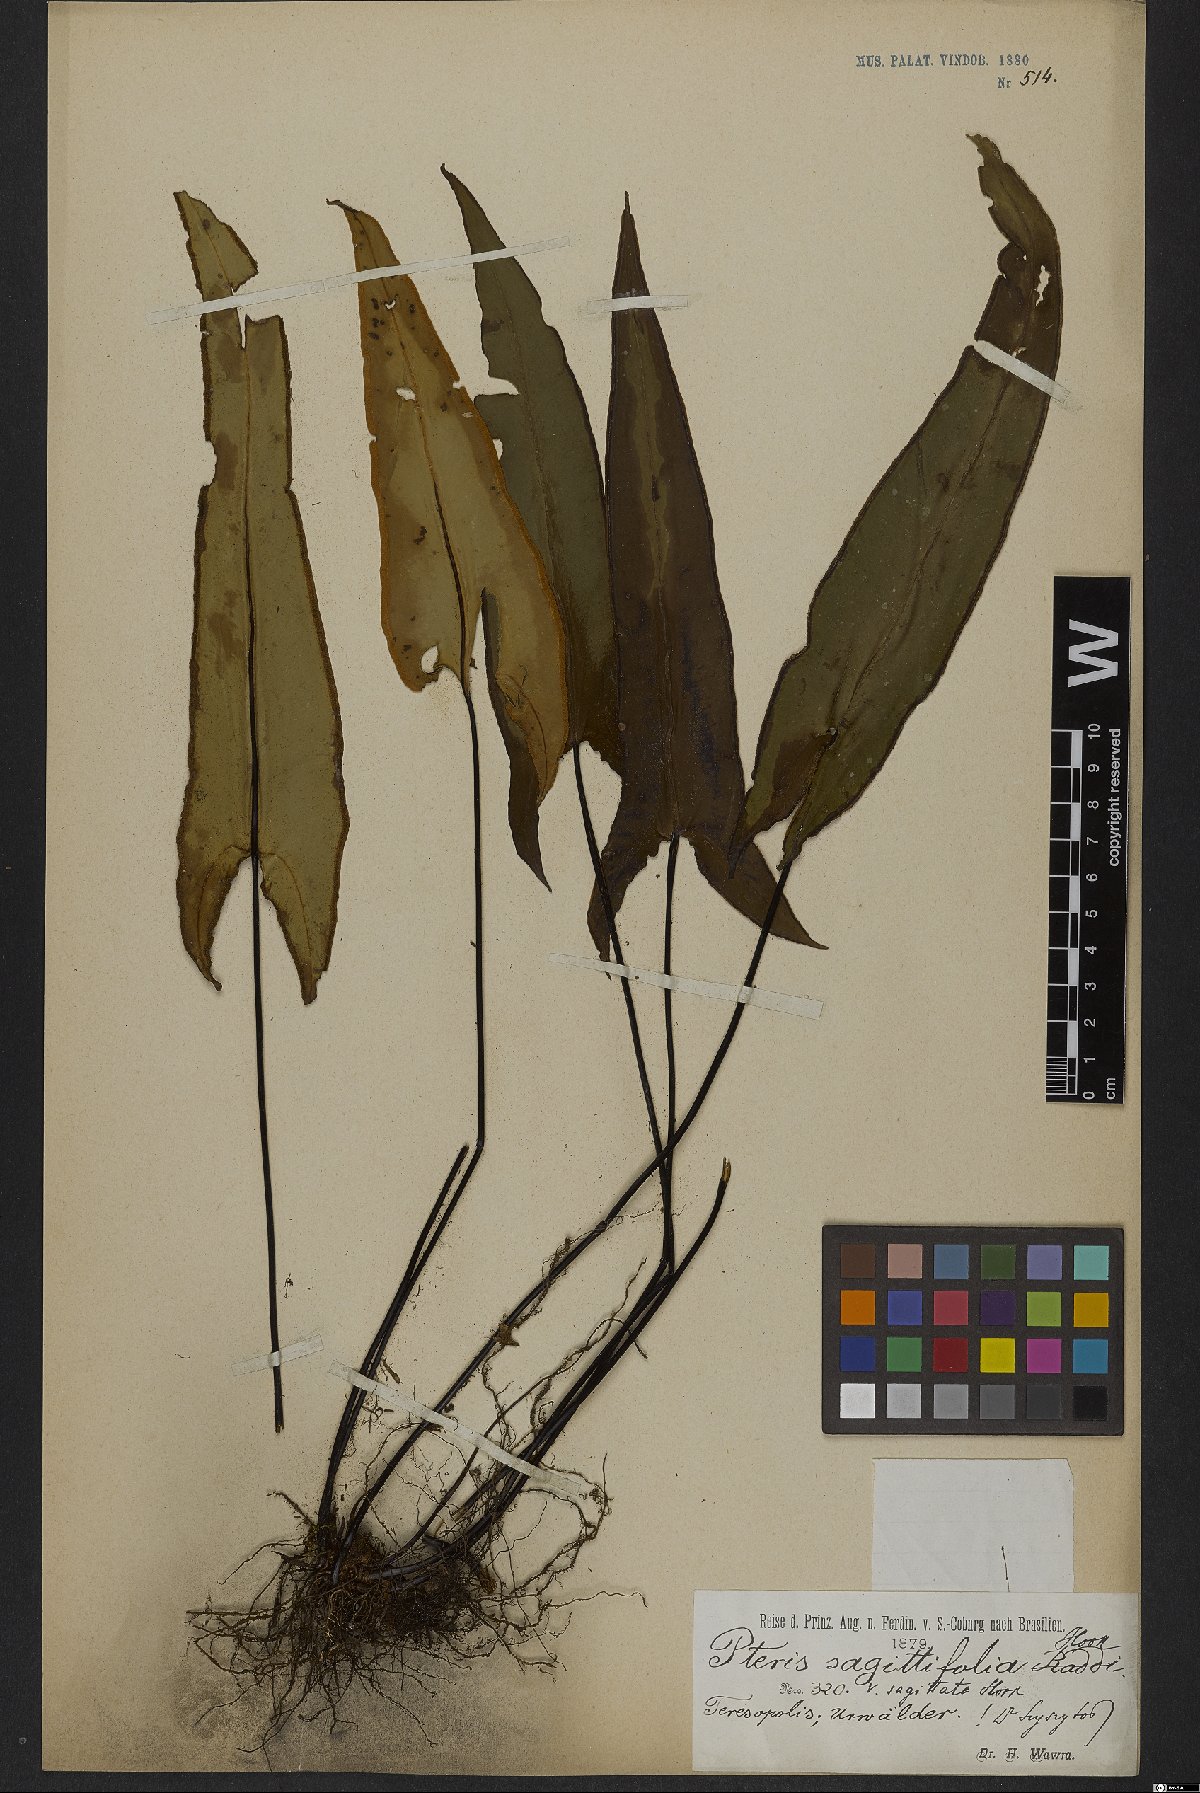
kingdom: Plantae
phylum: Tracheophyta
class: Polypodiopsida
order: Polypodiales
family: Pteridaceae
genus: Doryopteris
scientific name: Doryopteris sagittifolia
